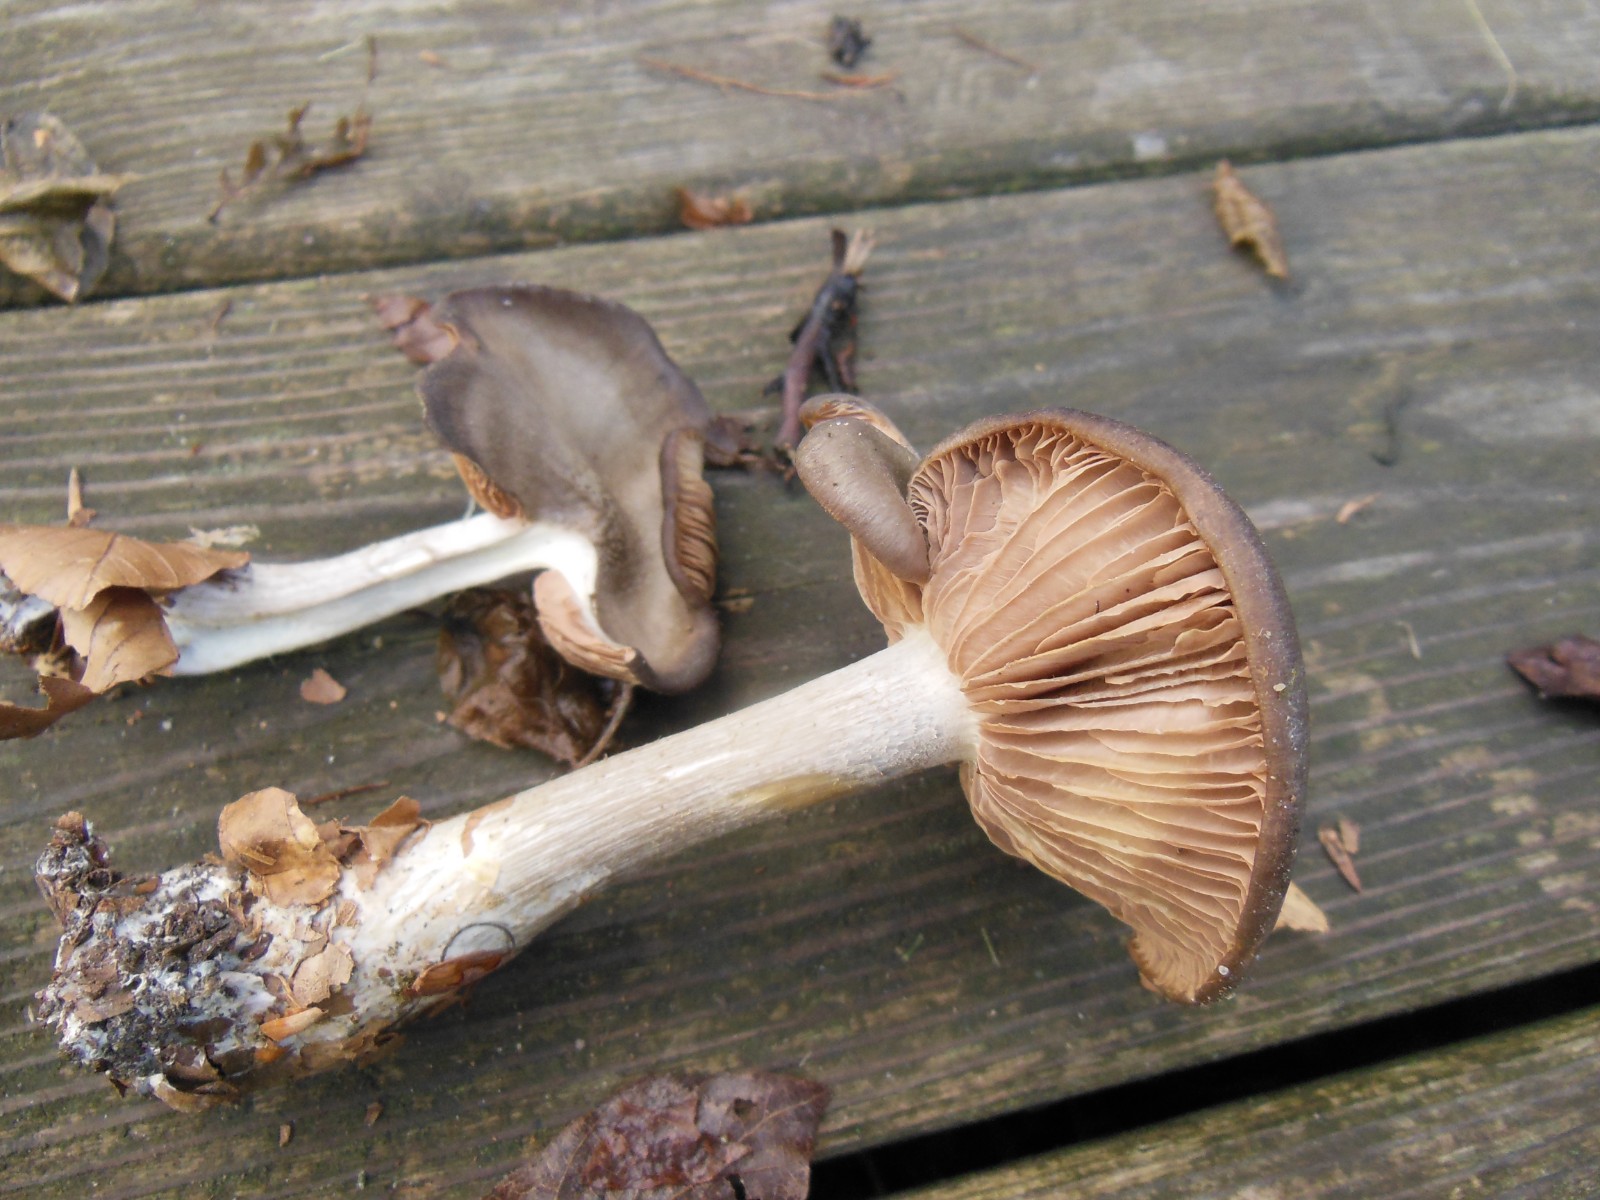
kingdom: Fungi
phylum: Basidiomycota
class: Agaricomycetes
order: Agaricales
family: Entolomataceae
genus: Entoloma
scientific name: Entoloma
